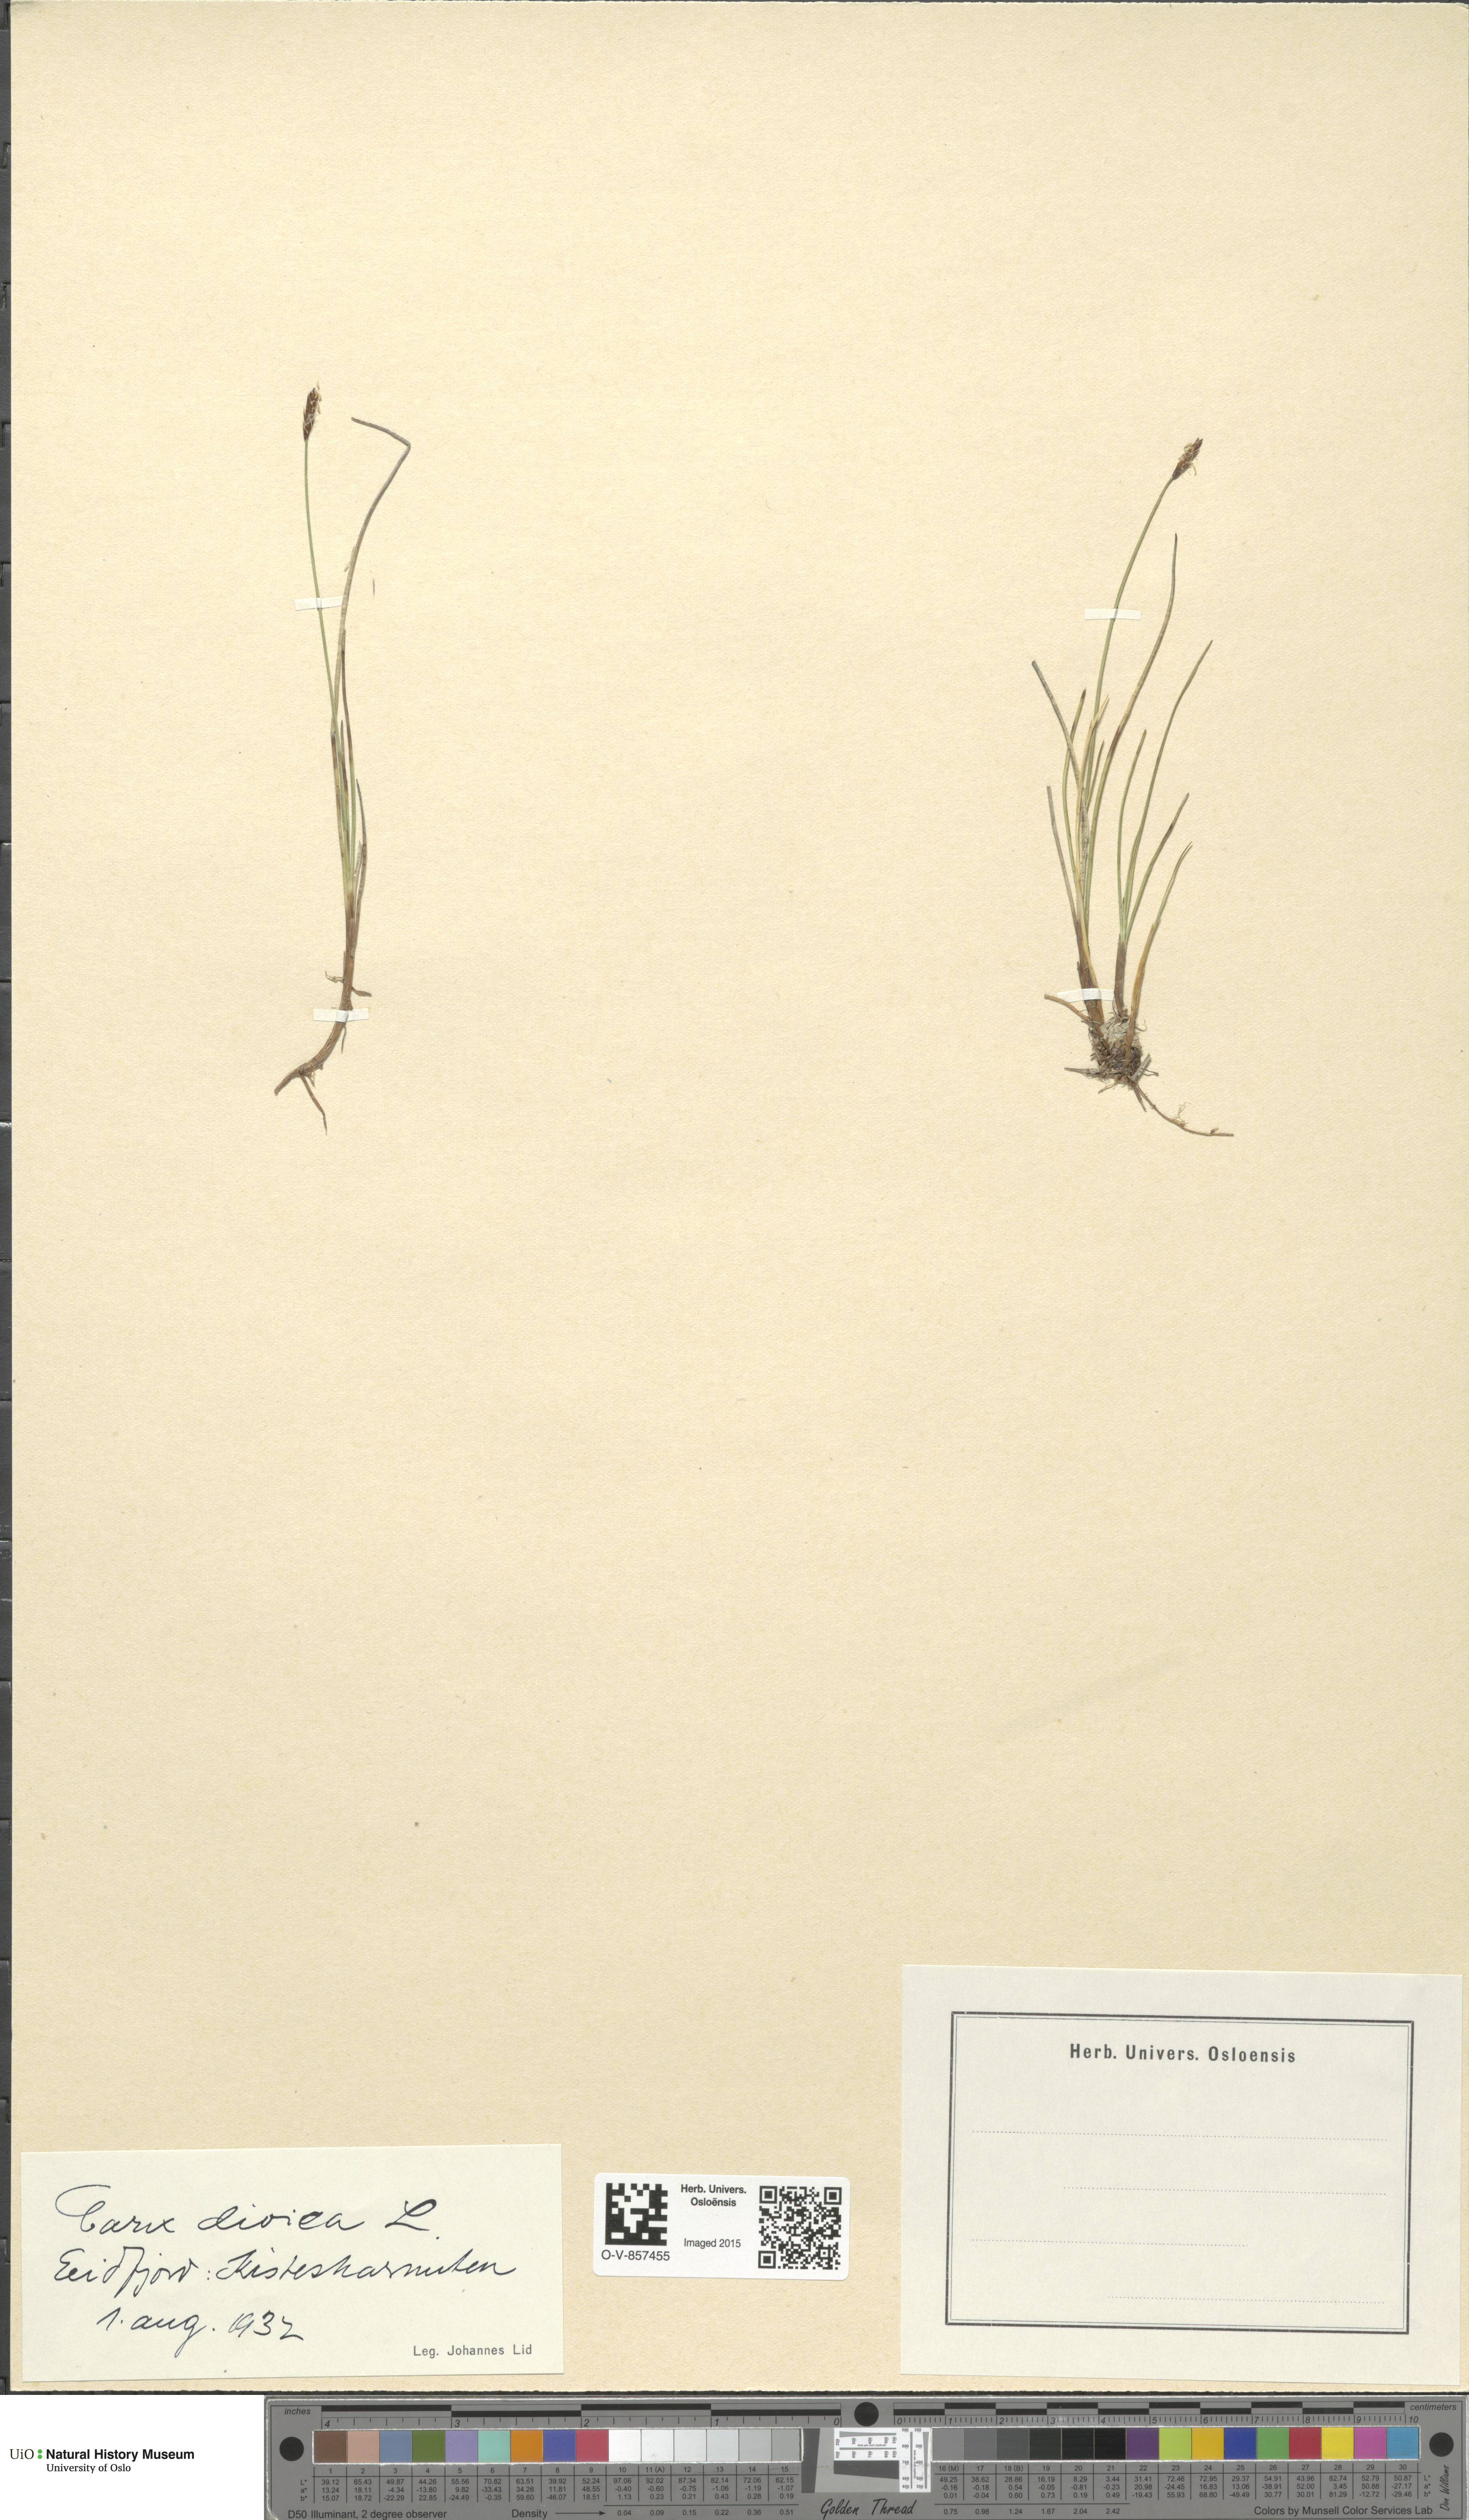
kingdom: Plantae
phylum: Tracheophyta
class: Liliopsida
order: Poales
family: Cyperaceae
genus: Carex
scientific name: Carex dioica
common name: Dioecious sedge
